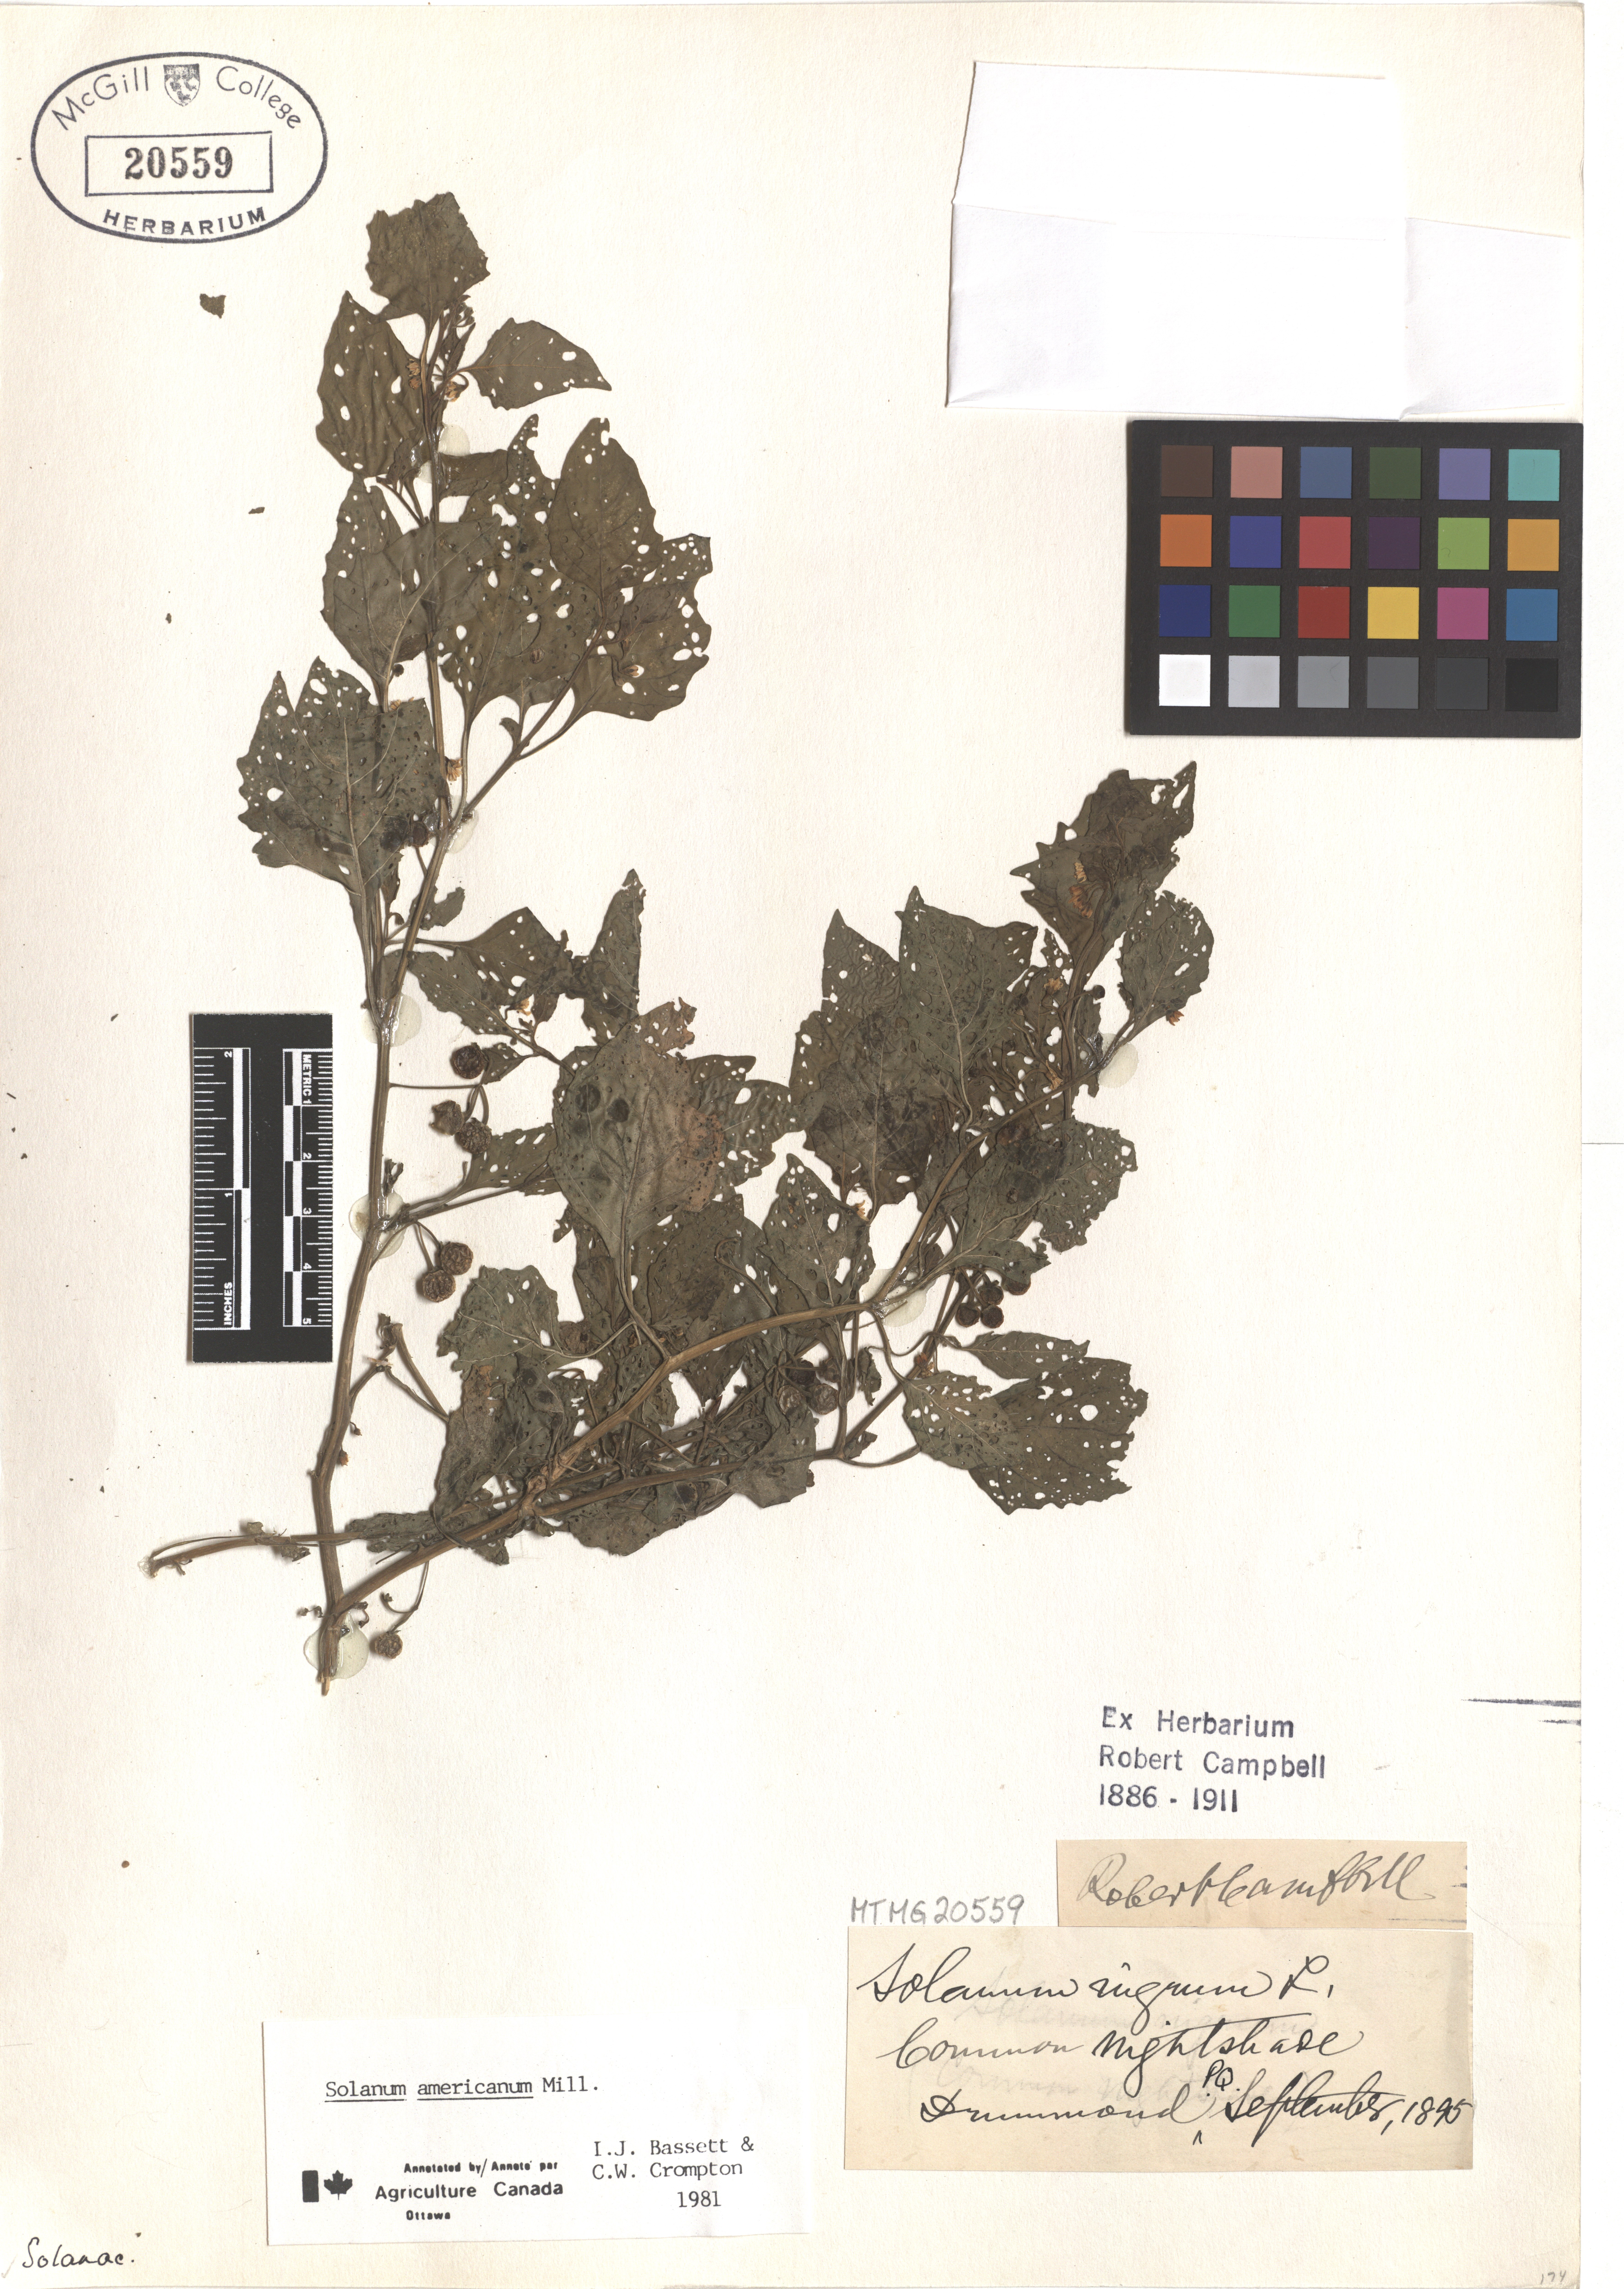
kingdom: Plantae
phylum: Tracheophyta
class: Magnoliopsida
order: Solanales
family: Solanaceae
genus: Solanum
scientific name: Solanum americanum
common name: American black nightshade
